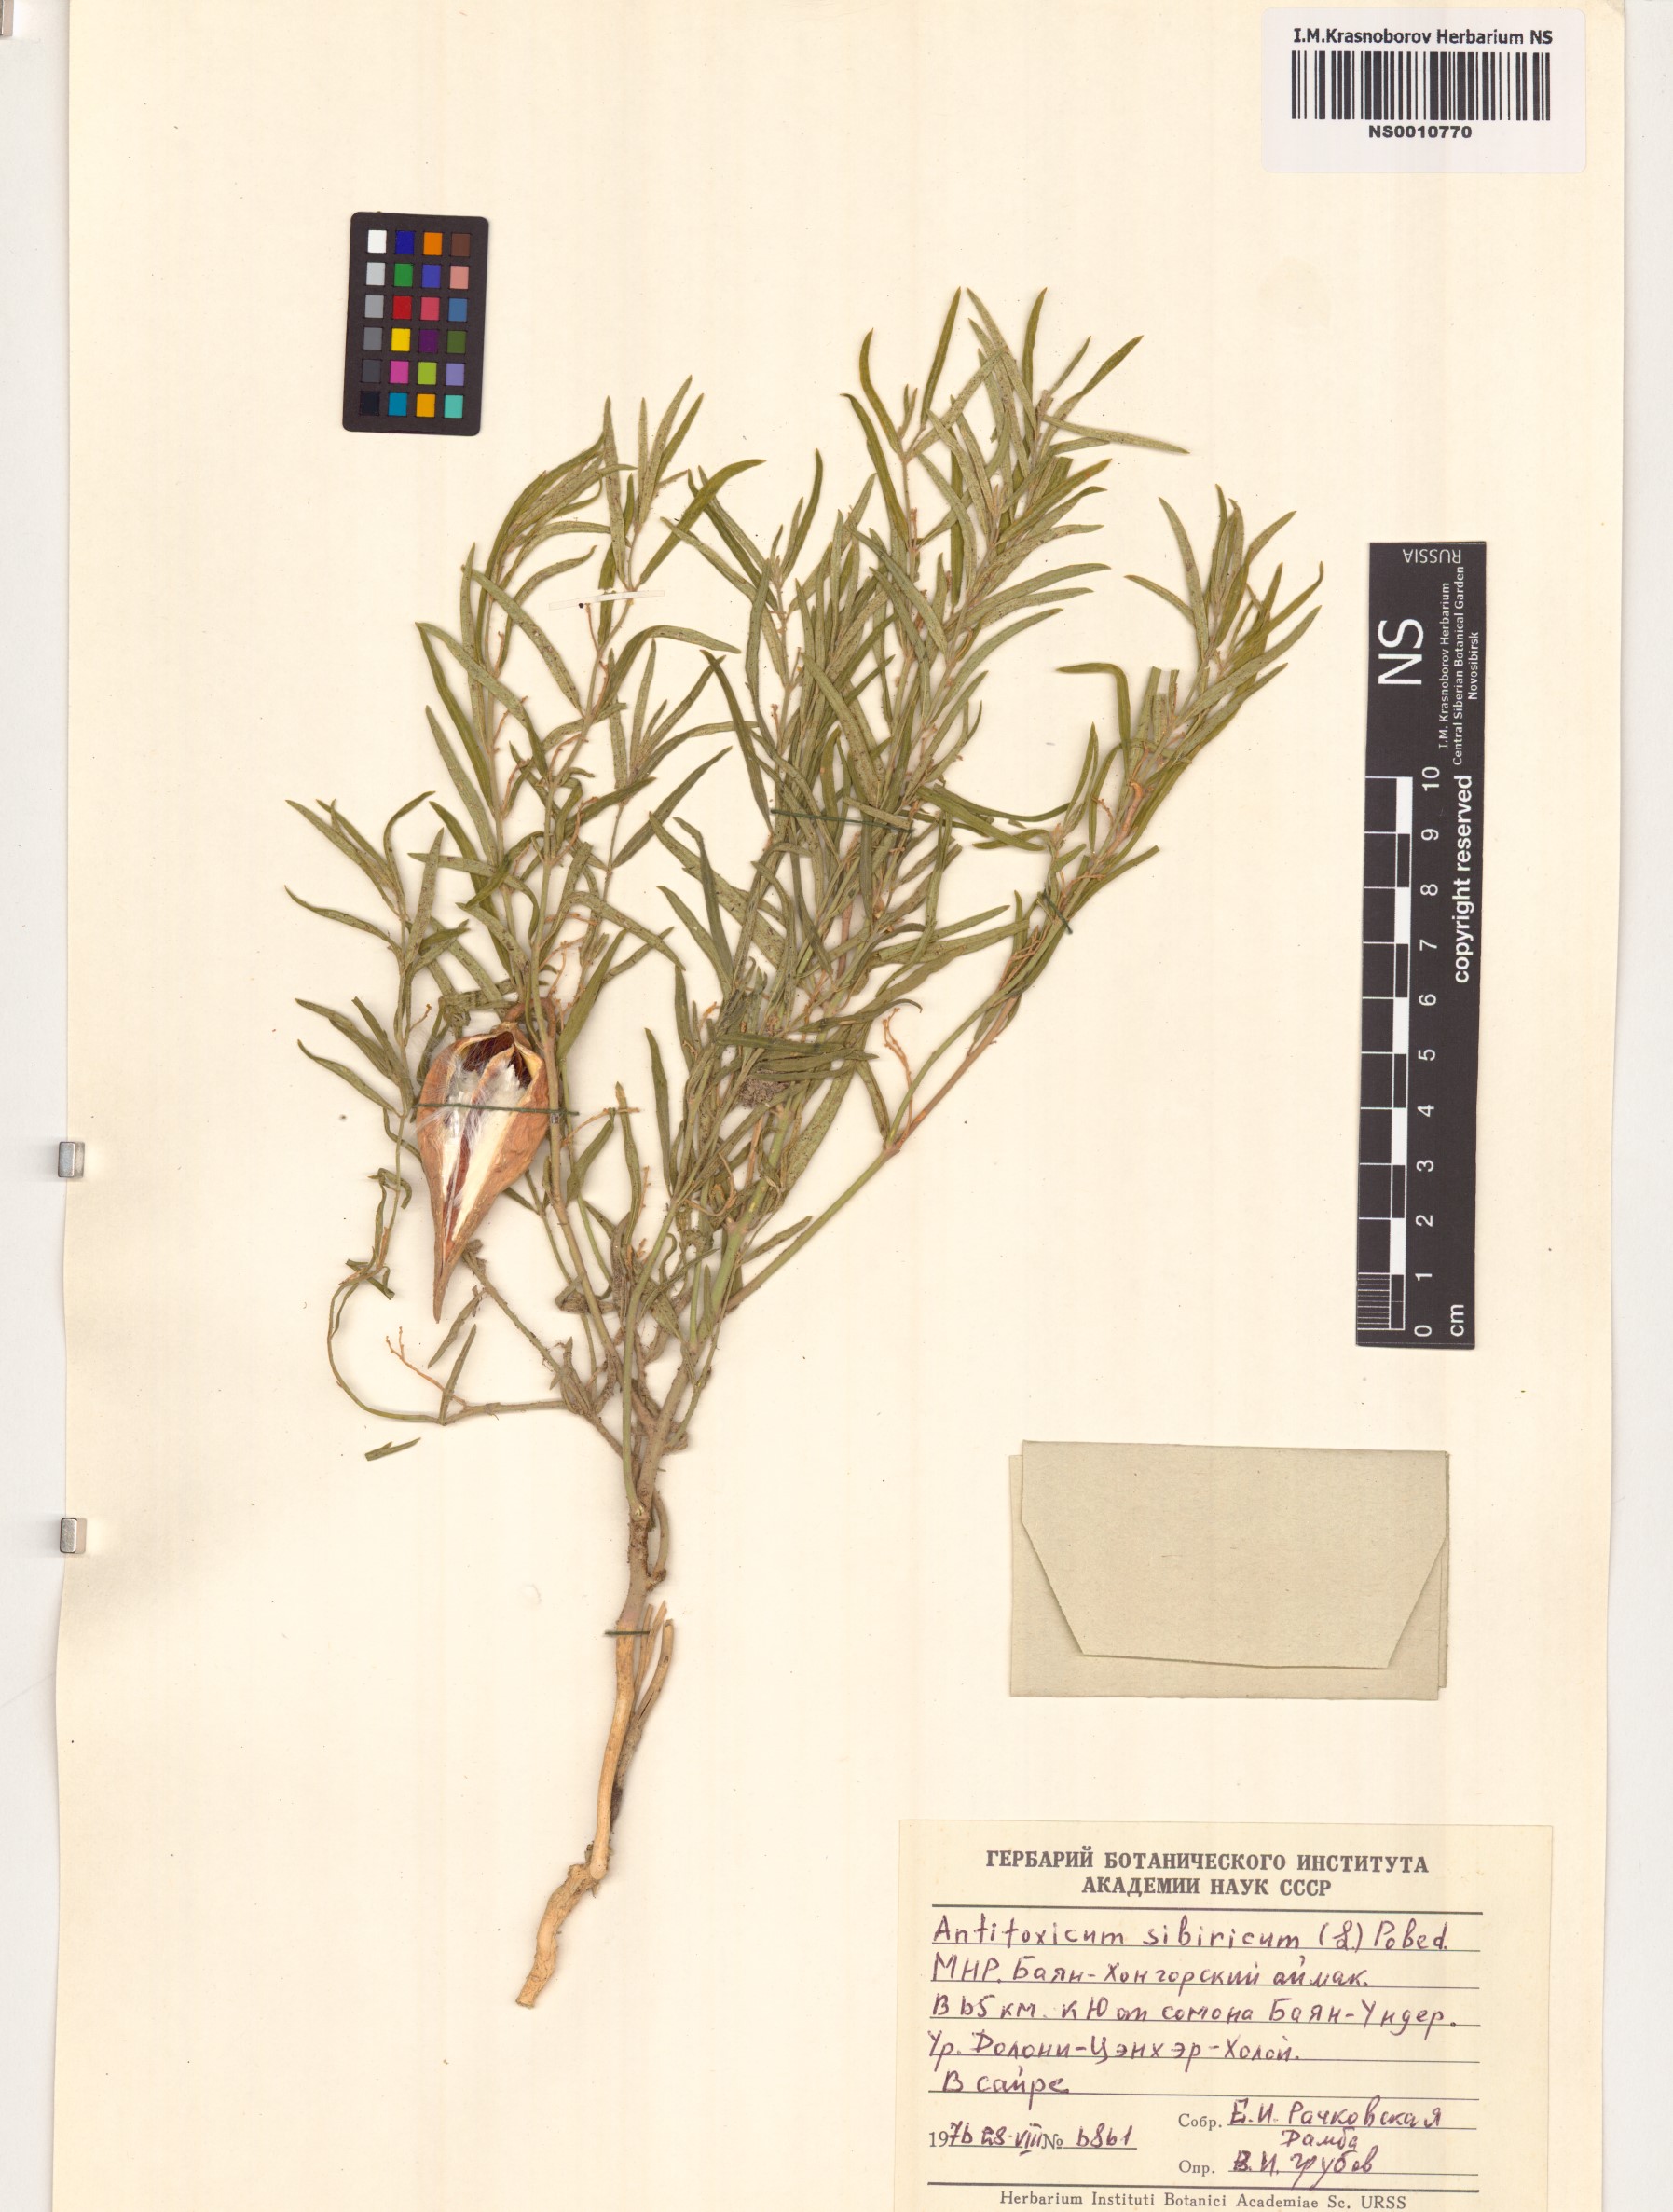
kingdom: Plantae
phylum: Tracheophyta
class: Magnoliopsida
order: Gentianales
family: Apocynaceae
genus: Cynanchum
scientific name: Cynanchum thesioides
